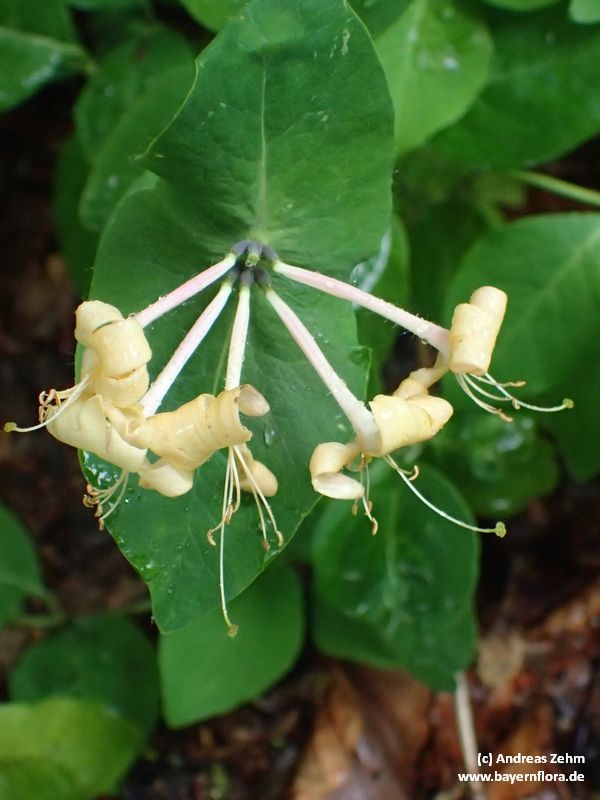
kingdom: Plantae
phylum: Tracheophyta
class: Magnoliopsida
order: Dipsacales
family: Caprifoliaceae
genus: Lonicera
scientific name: Lonicera caprifolium
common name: Perfoliate honeysuckle
